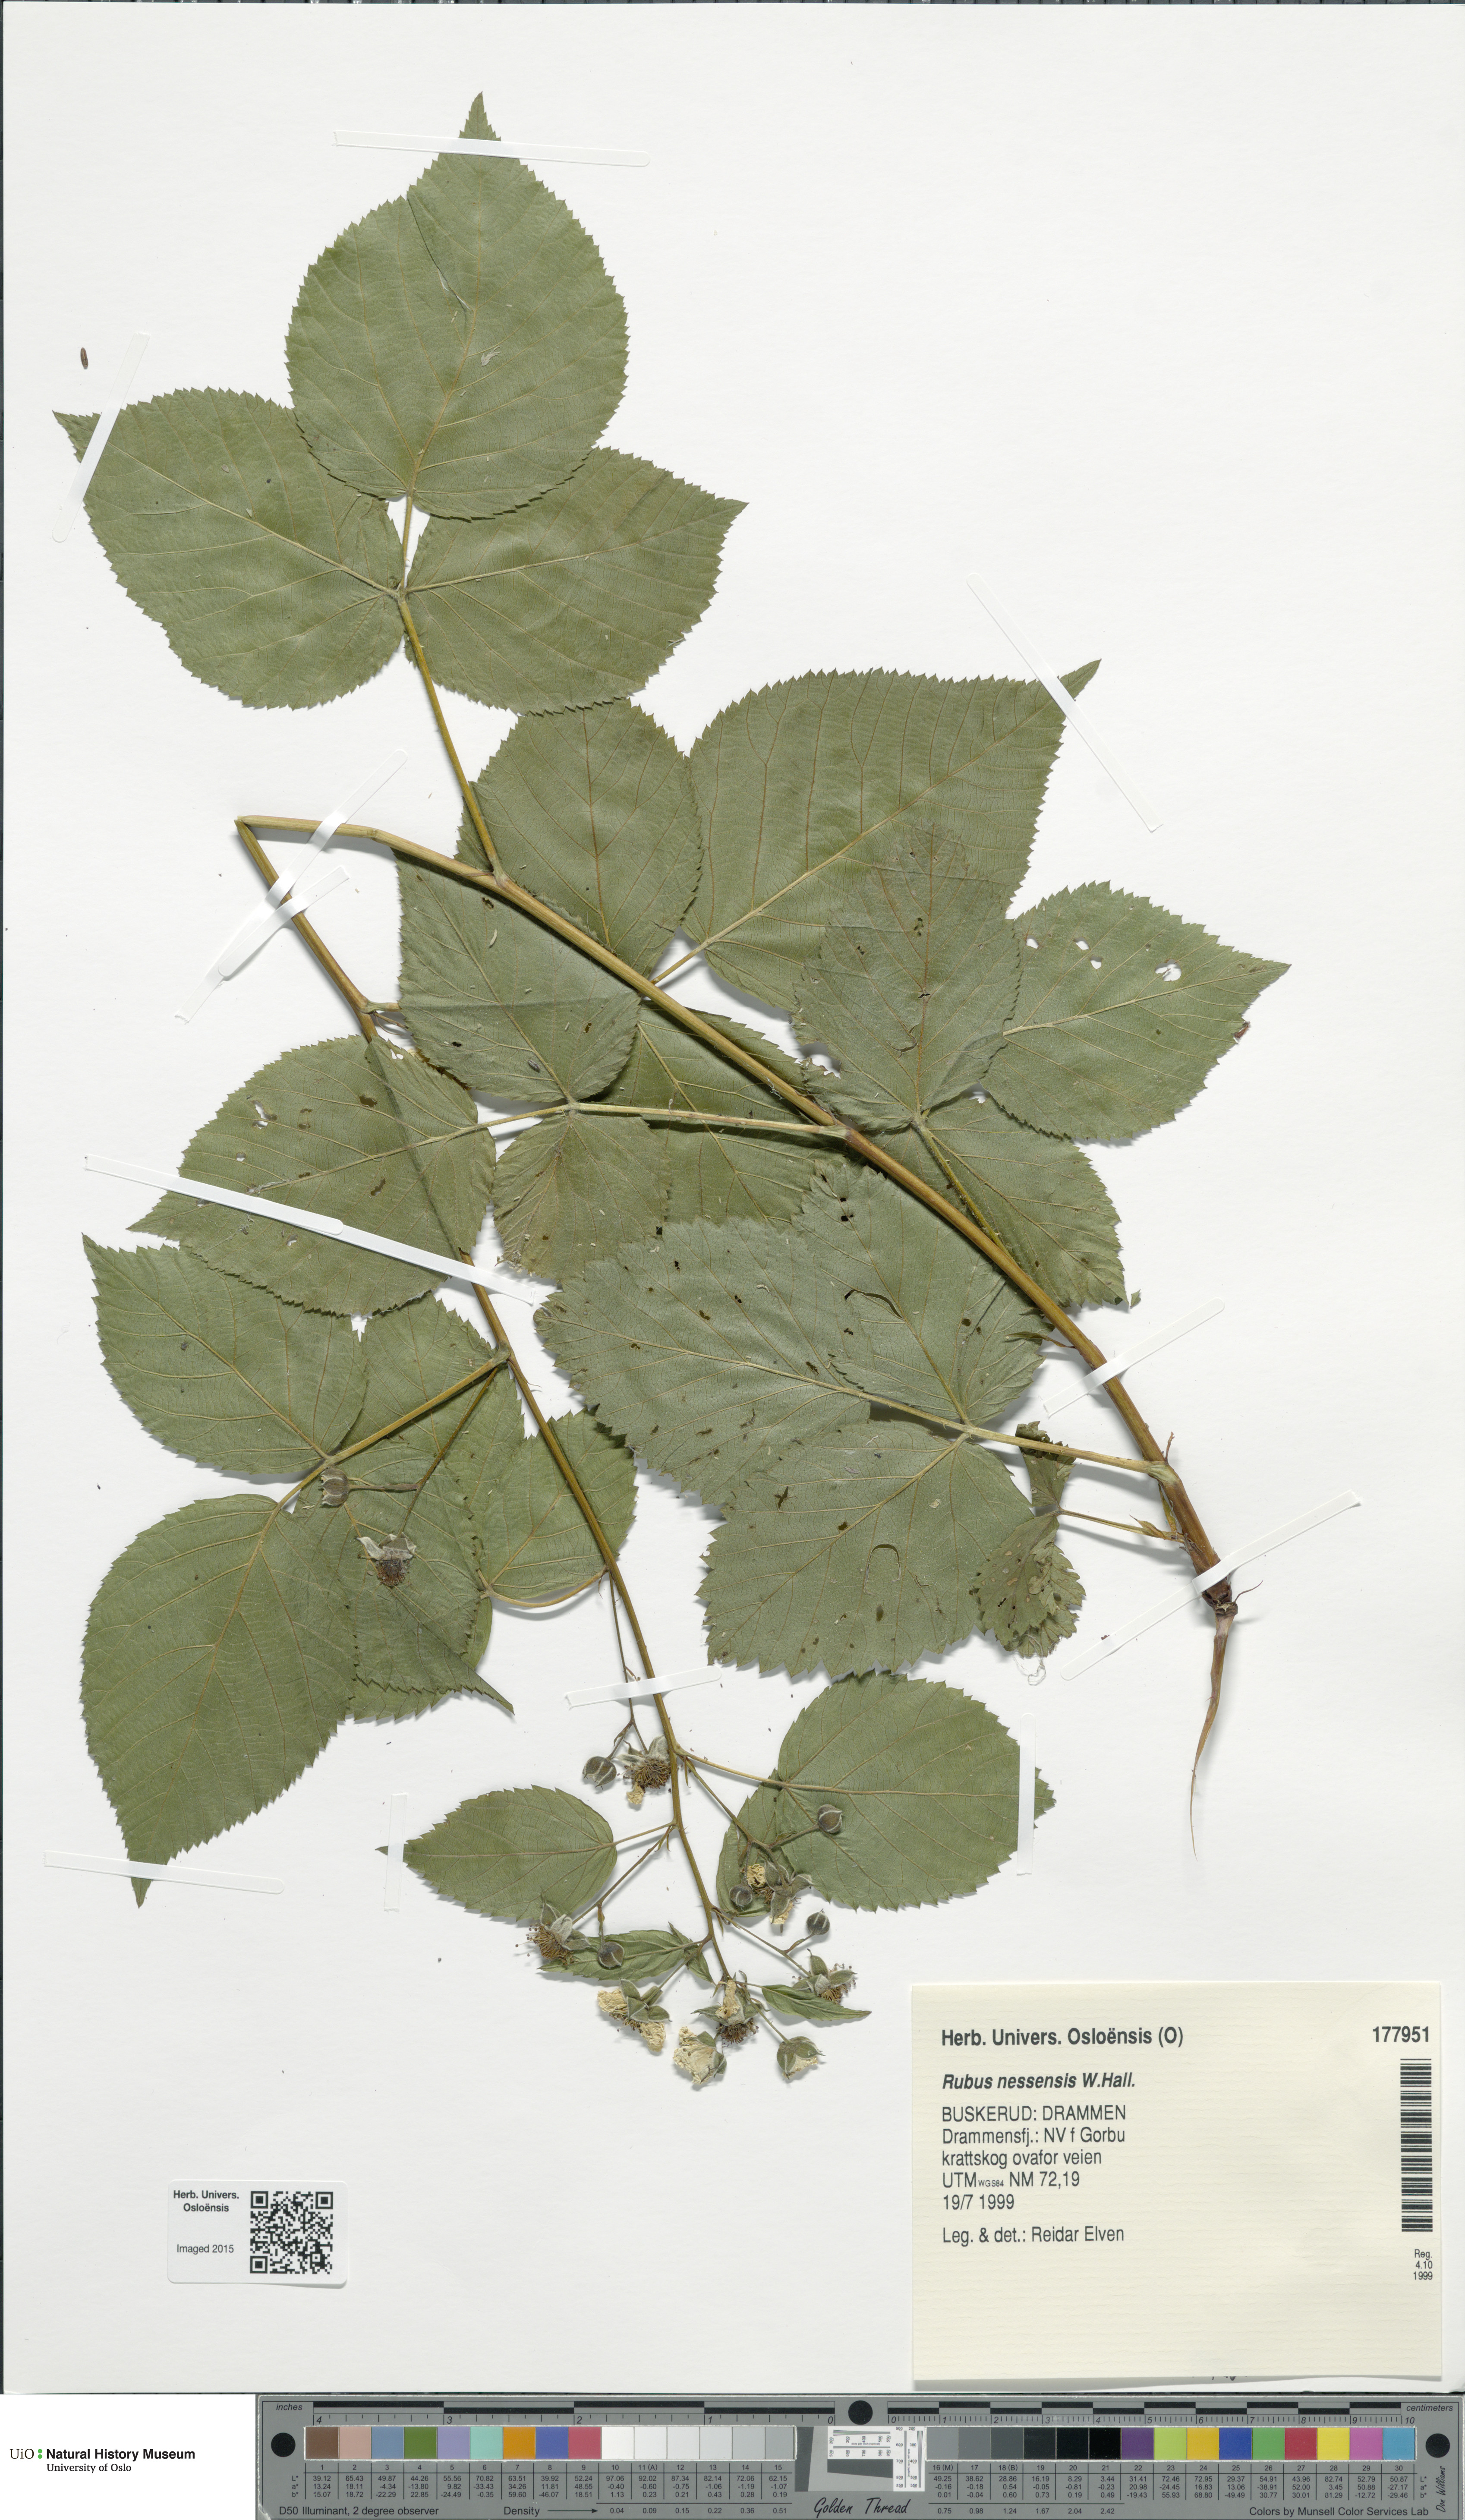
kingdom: Plantae
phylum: Tracheophyta
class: Magnoliopsida
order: Rosales
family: Rosaceae
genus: Rubus
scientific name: Rubus polonicus
